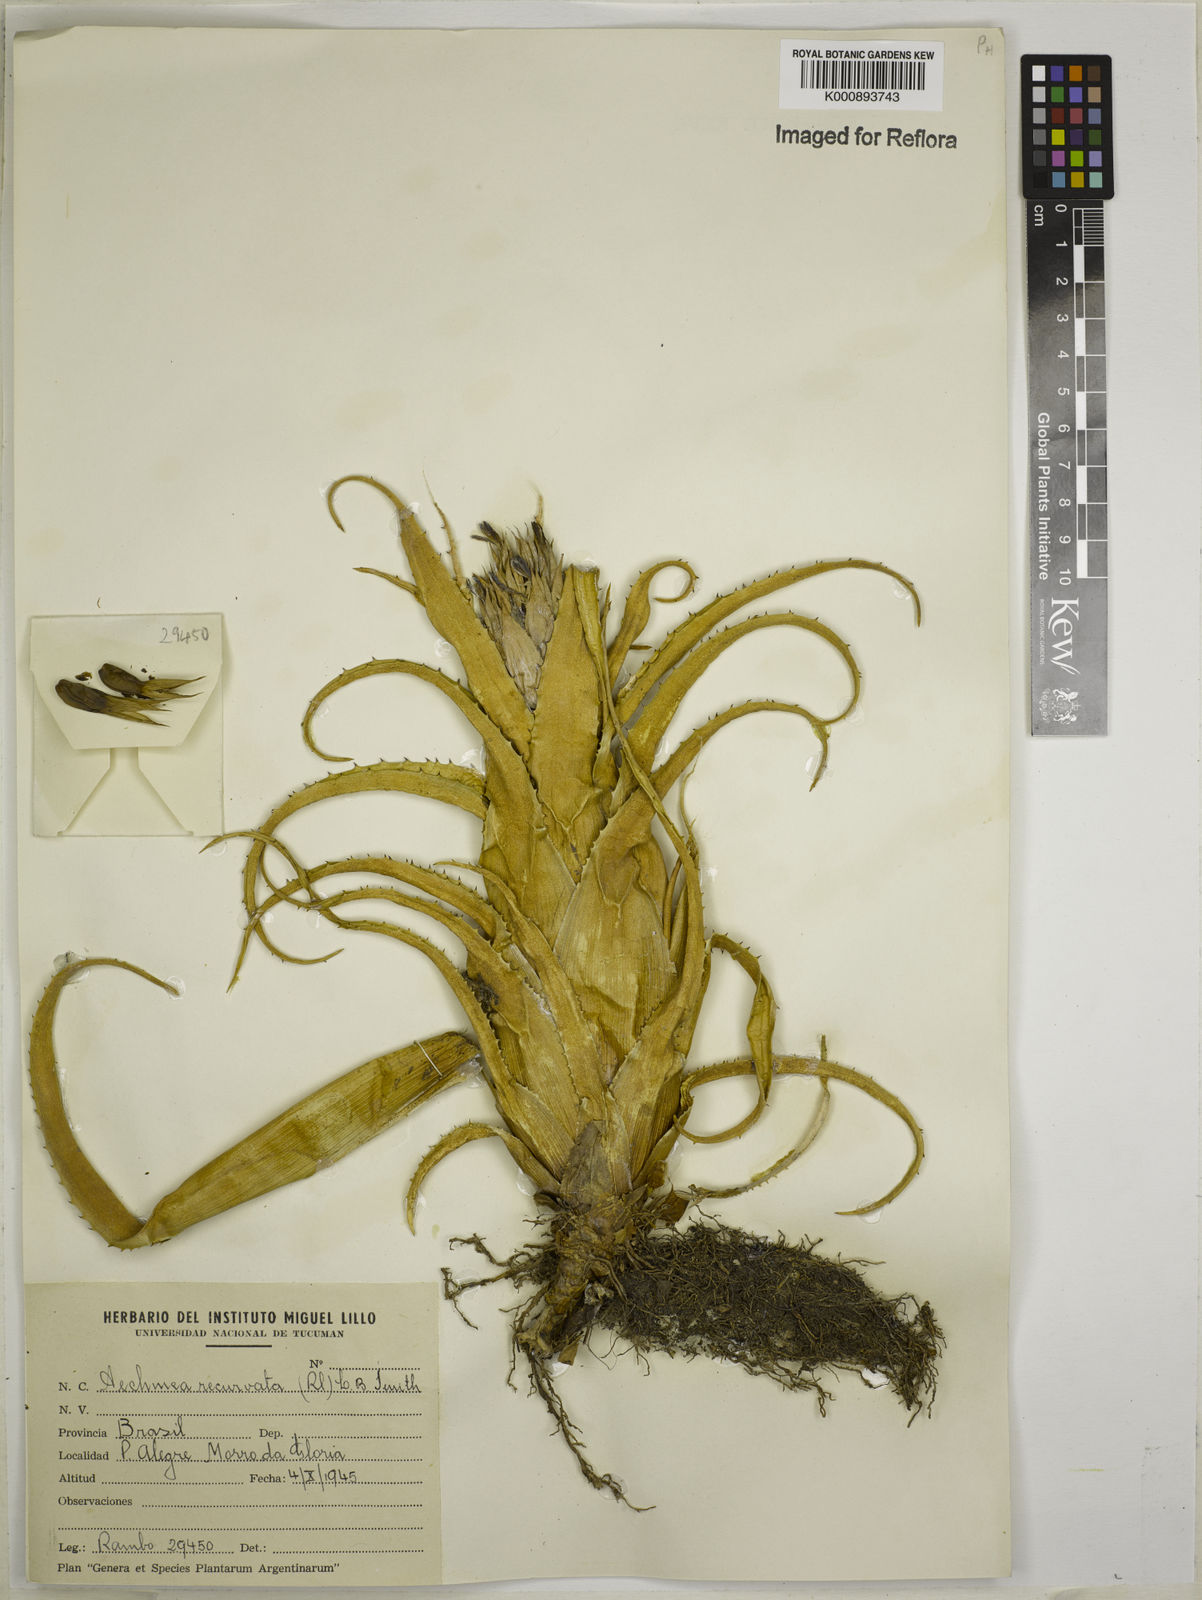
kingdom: Plantae
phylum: Tracheophyta
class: Liliopsida
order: Poales
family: Bromeliaceae
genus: Aechmea
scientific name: Aechmea recurvata
